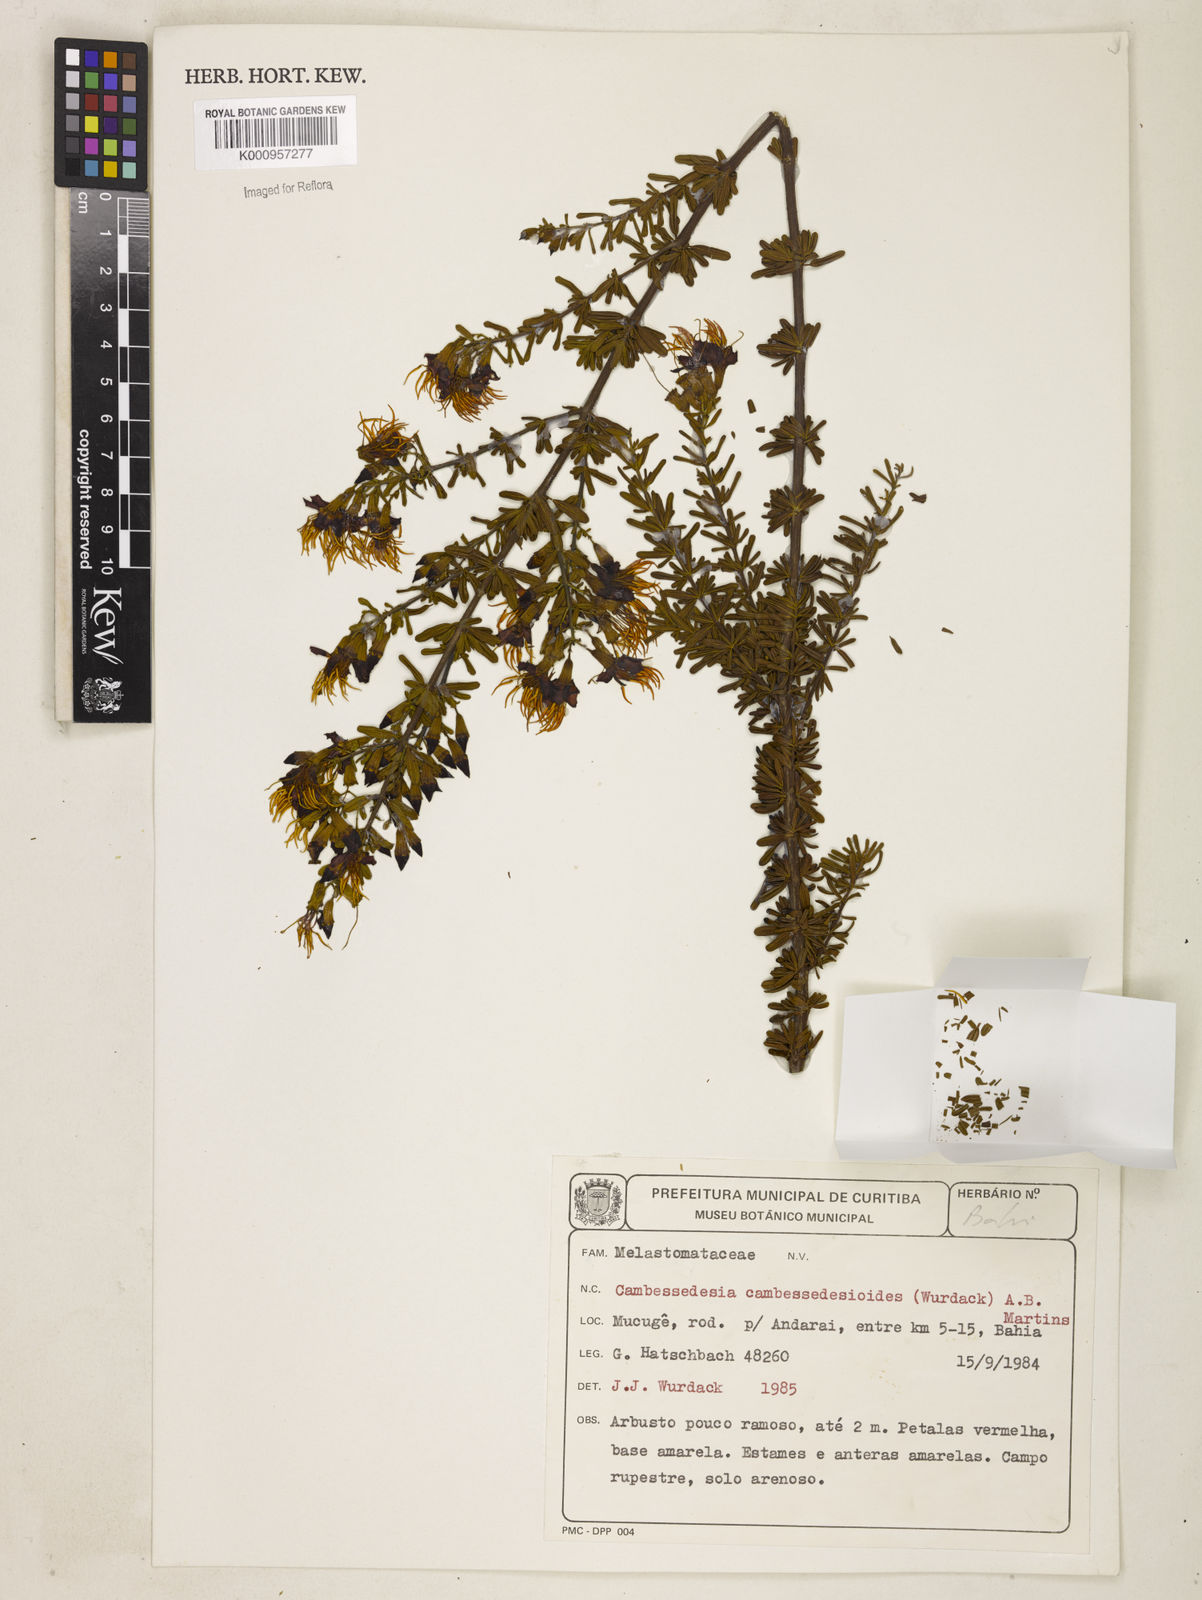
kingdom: Plantae
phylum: Tracheophyta
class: Magnoliopsida
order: Myrtales
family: Melastomataceae
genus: Cambessedesia
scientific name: Cambessedesia cambessedesioides
